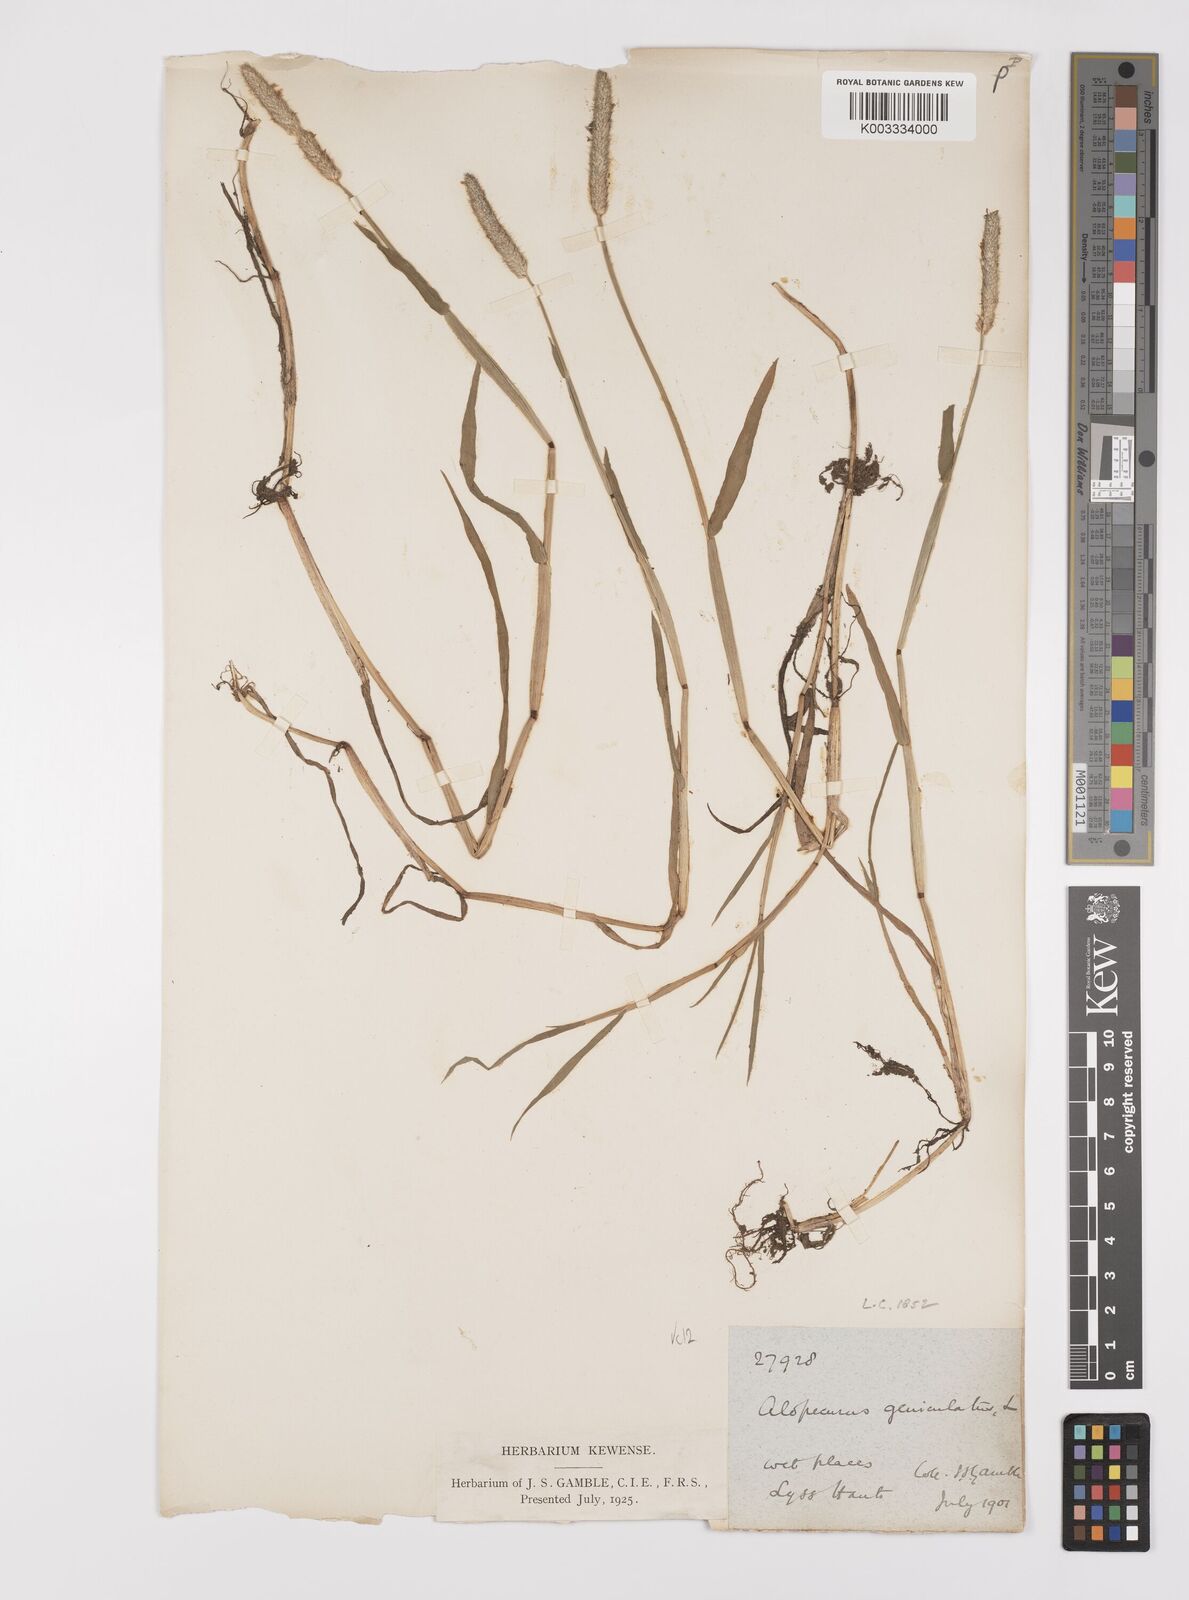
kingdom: Plantae
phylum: Tracheophyta
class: Liliopsida
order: Poales
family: Poaceae
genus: Alopecurus
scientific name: Alopecurus geniculatus
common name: Water foxtail
